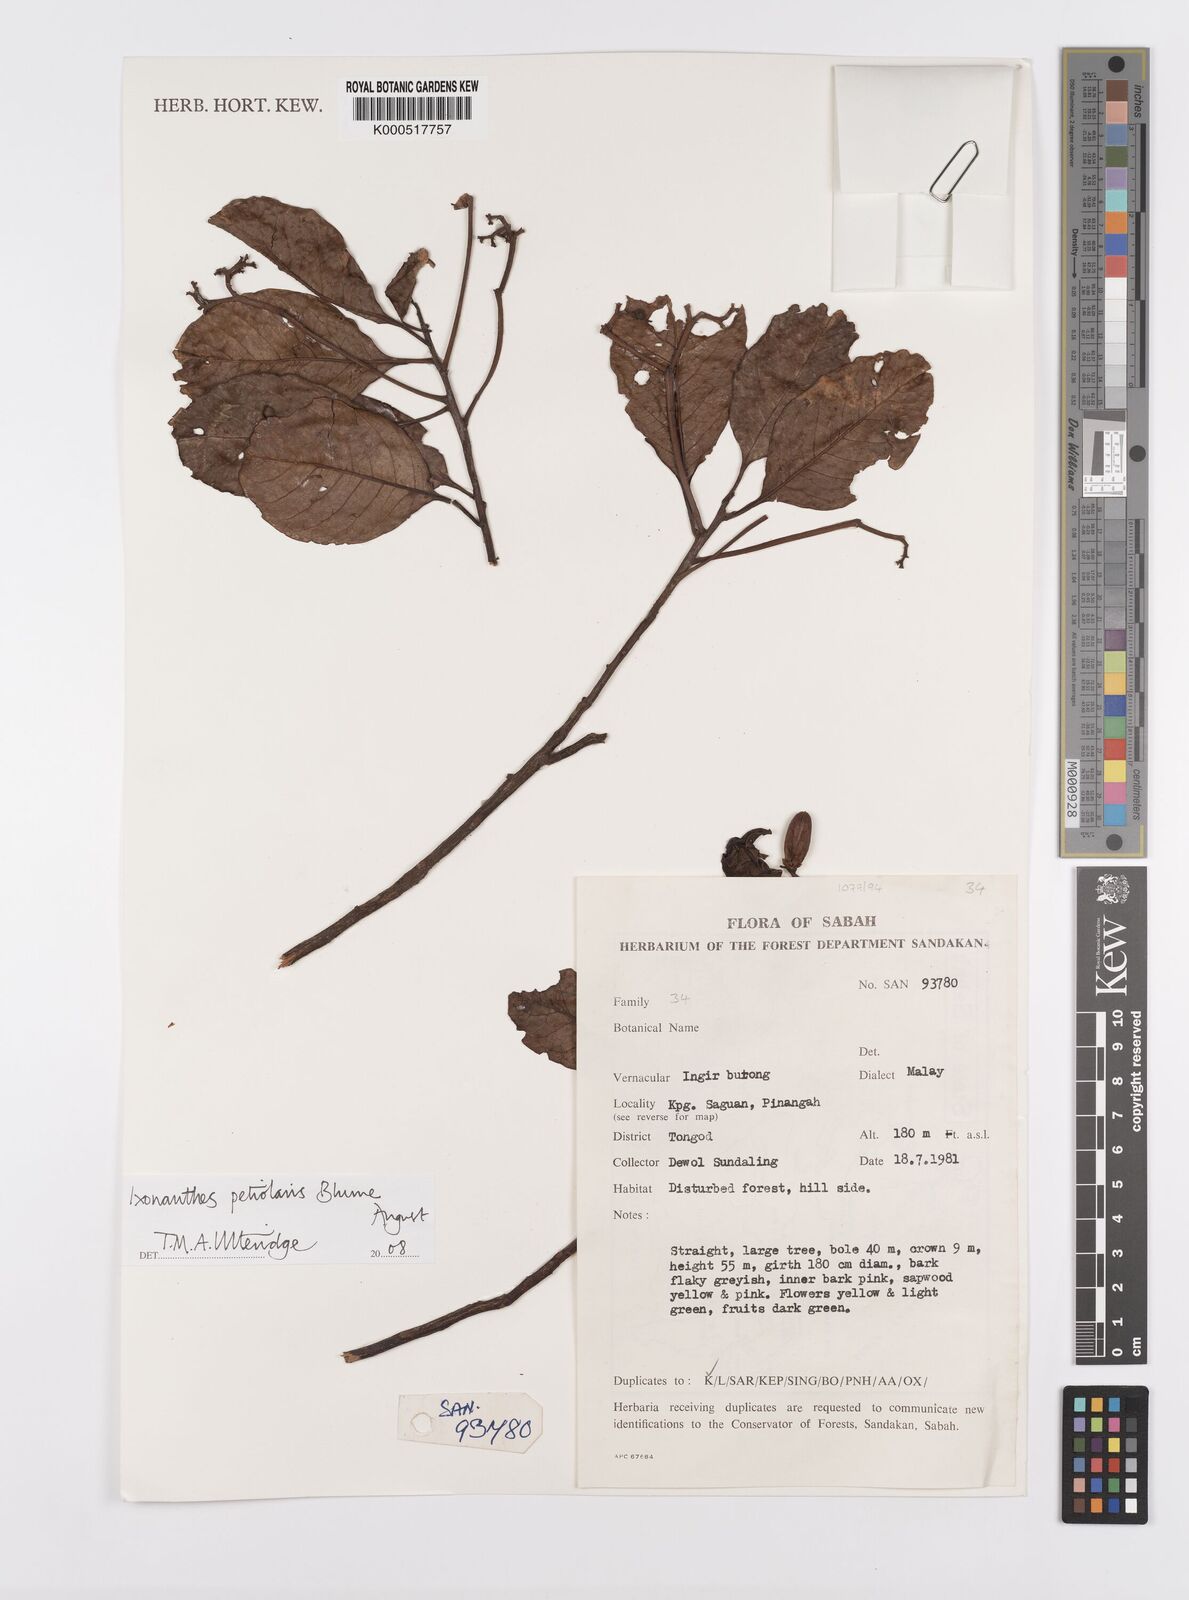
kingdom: Plantae
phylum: Tracheophyta
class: Magnoliopsida
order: Malpighiales
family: Ixonanthaceae
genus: Ixonanthes
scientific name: Ixonanthes petiolaris
